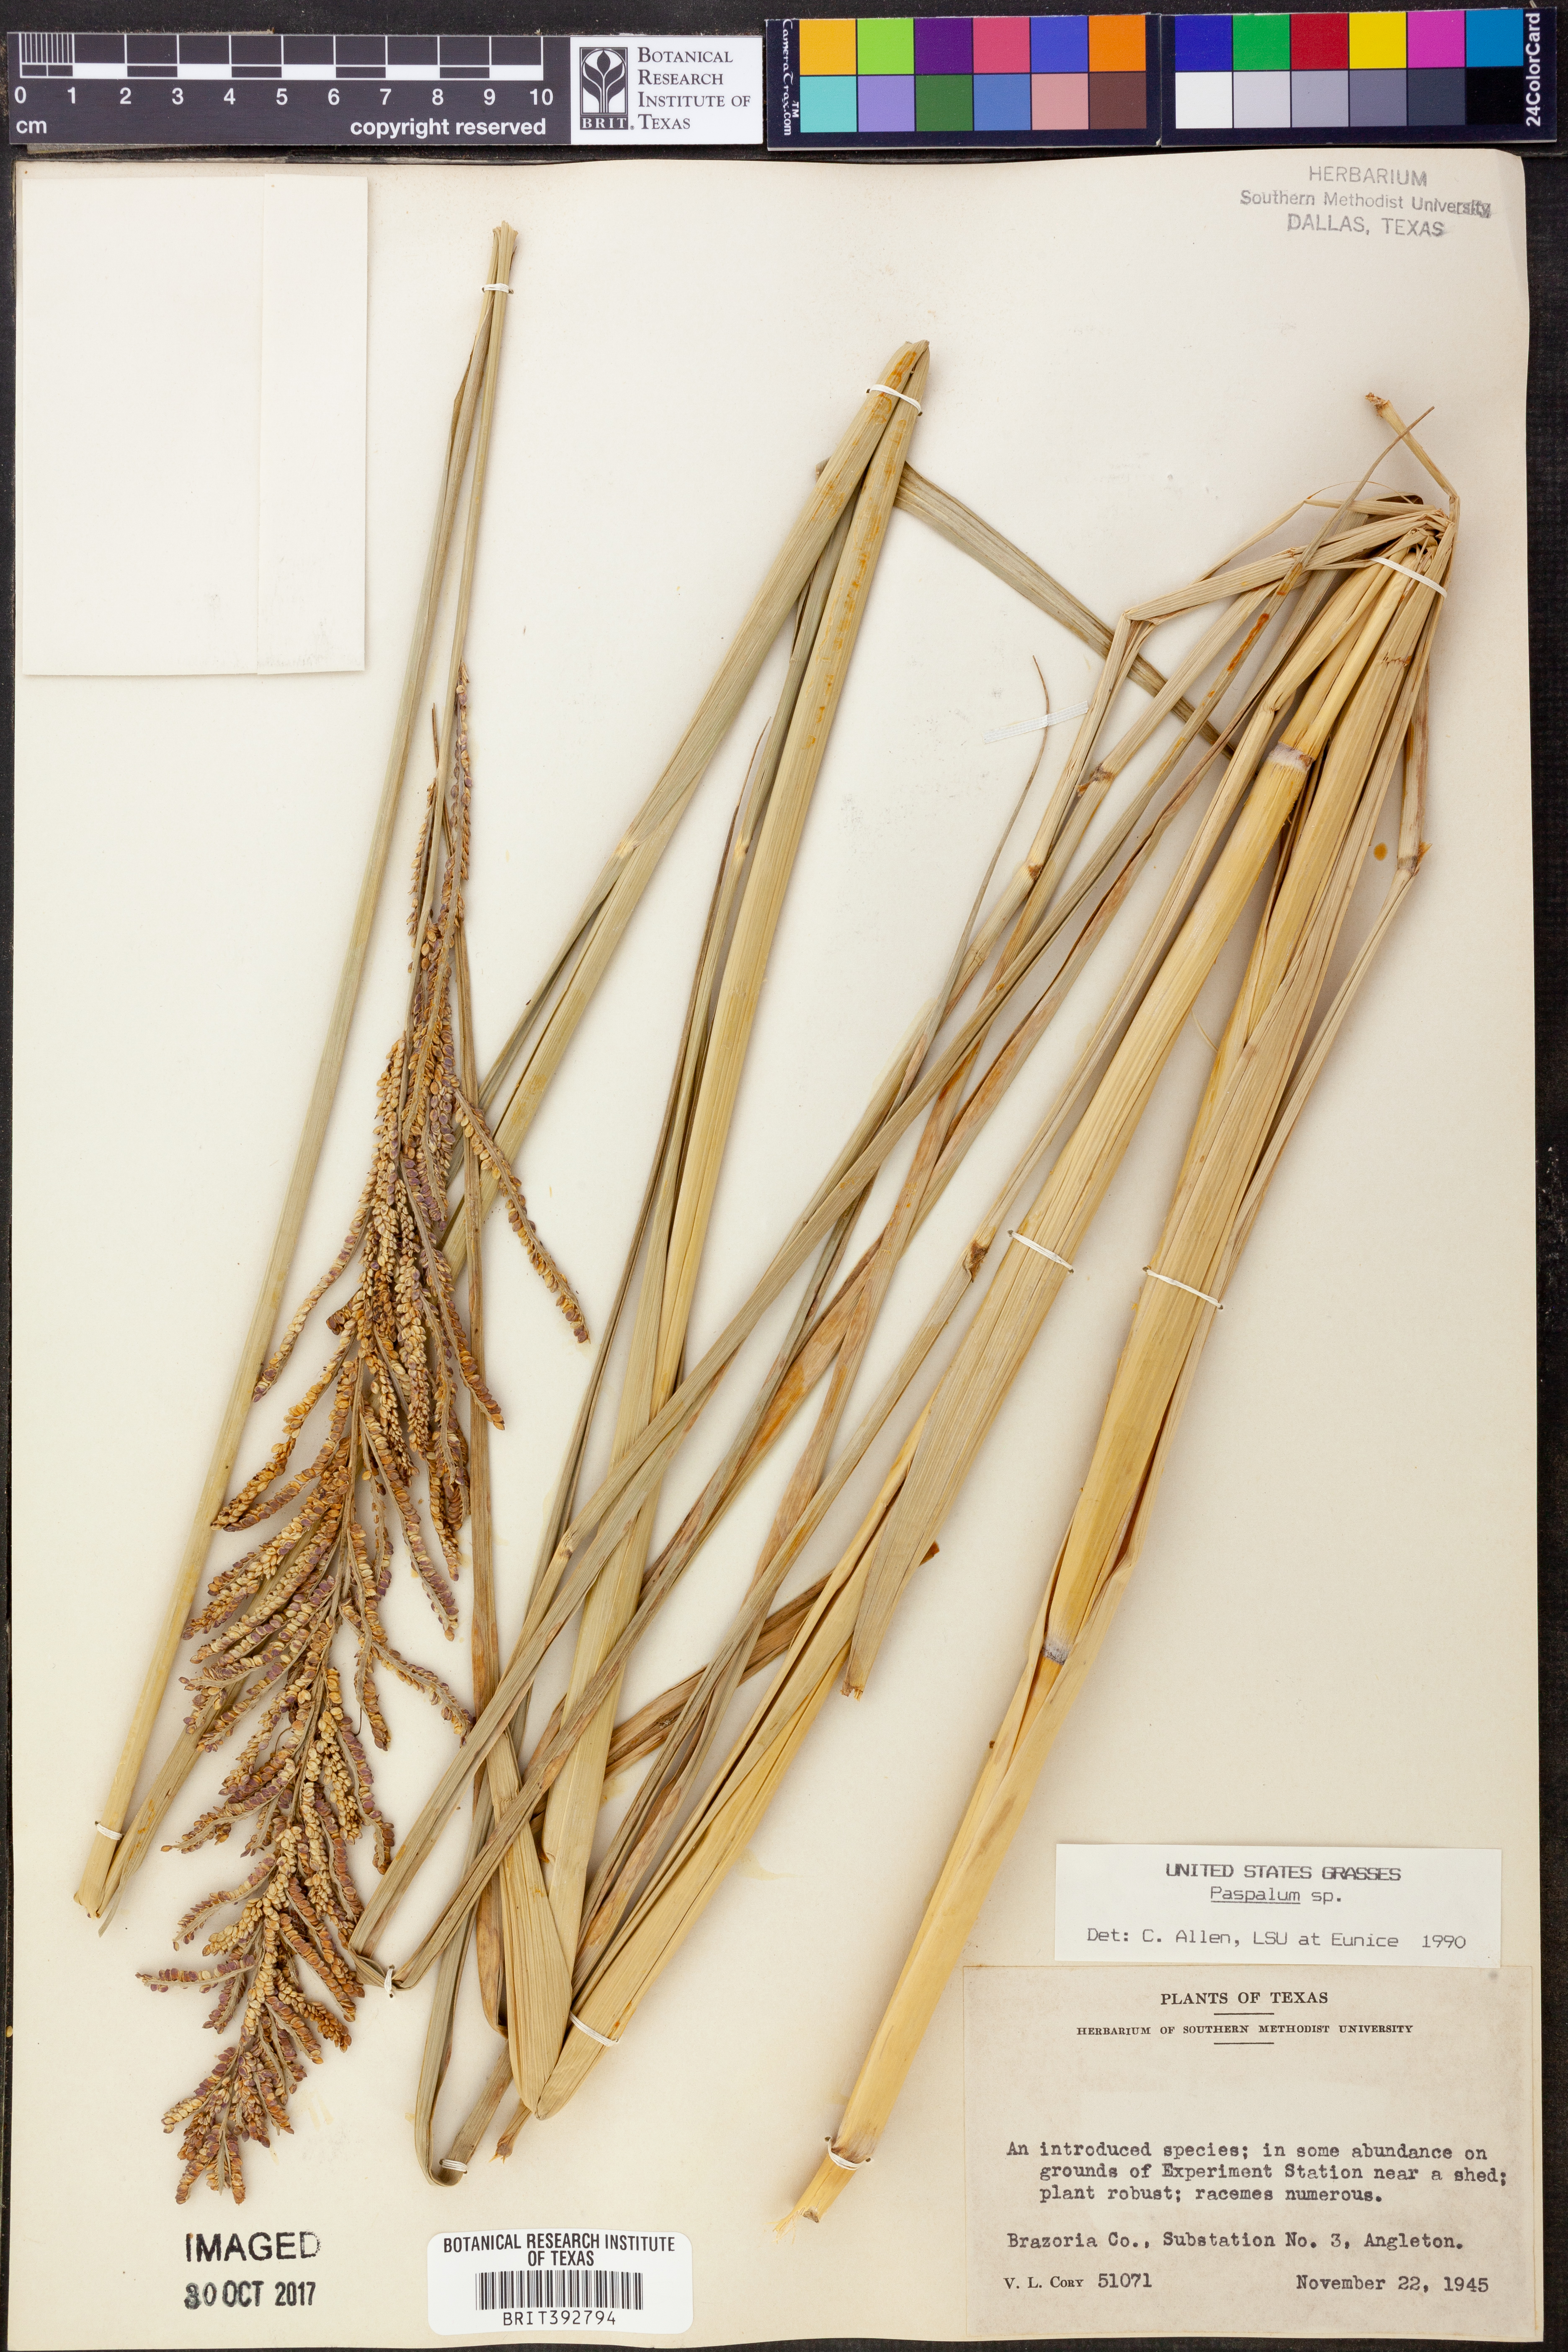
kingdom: Plantae
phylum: Tracheophyta
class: Liliopsida
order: Poales
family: Poaceae
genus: Paspalum
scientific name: Paspalum
